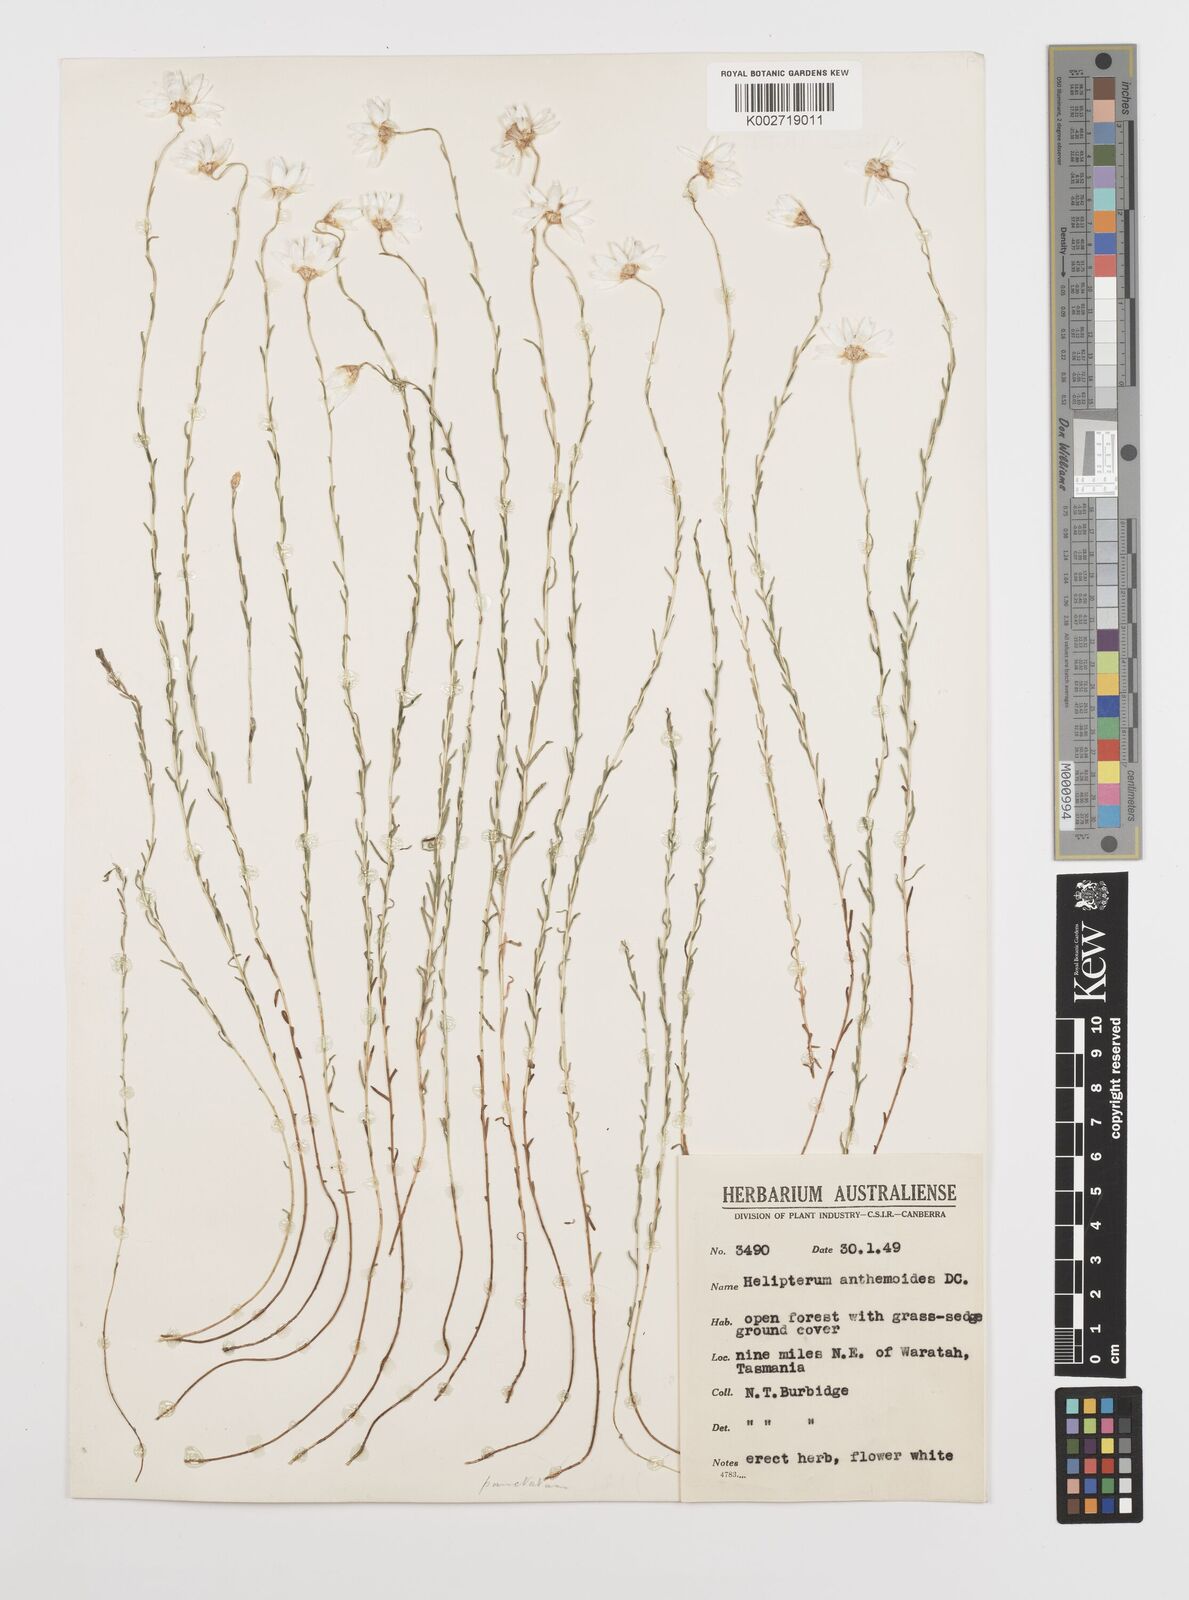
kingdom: Plantae
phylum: Tracheophyta
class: Magnoliopsida
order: Asterales
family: Asteraceae
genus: Rhodanthe
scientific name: Rhodanthe anthemoides
